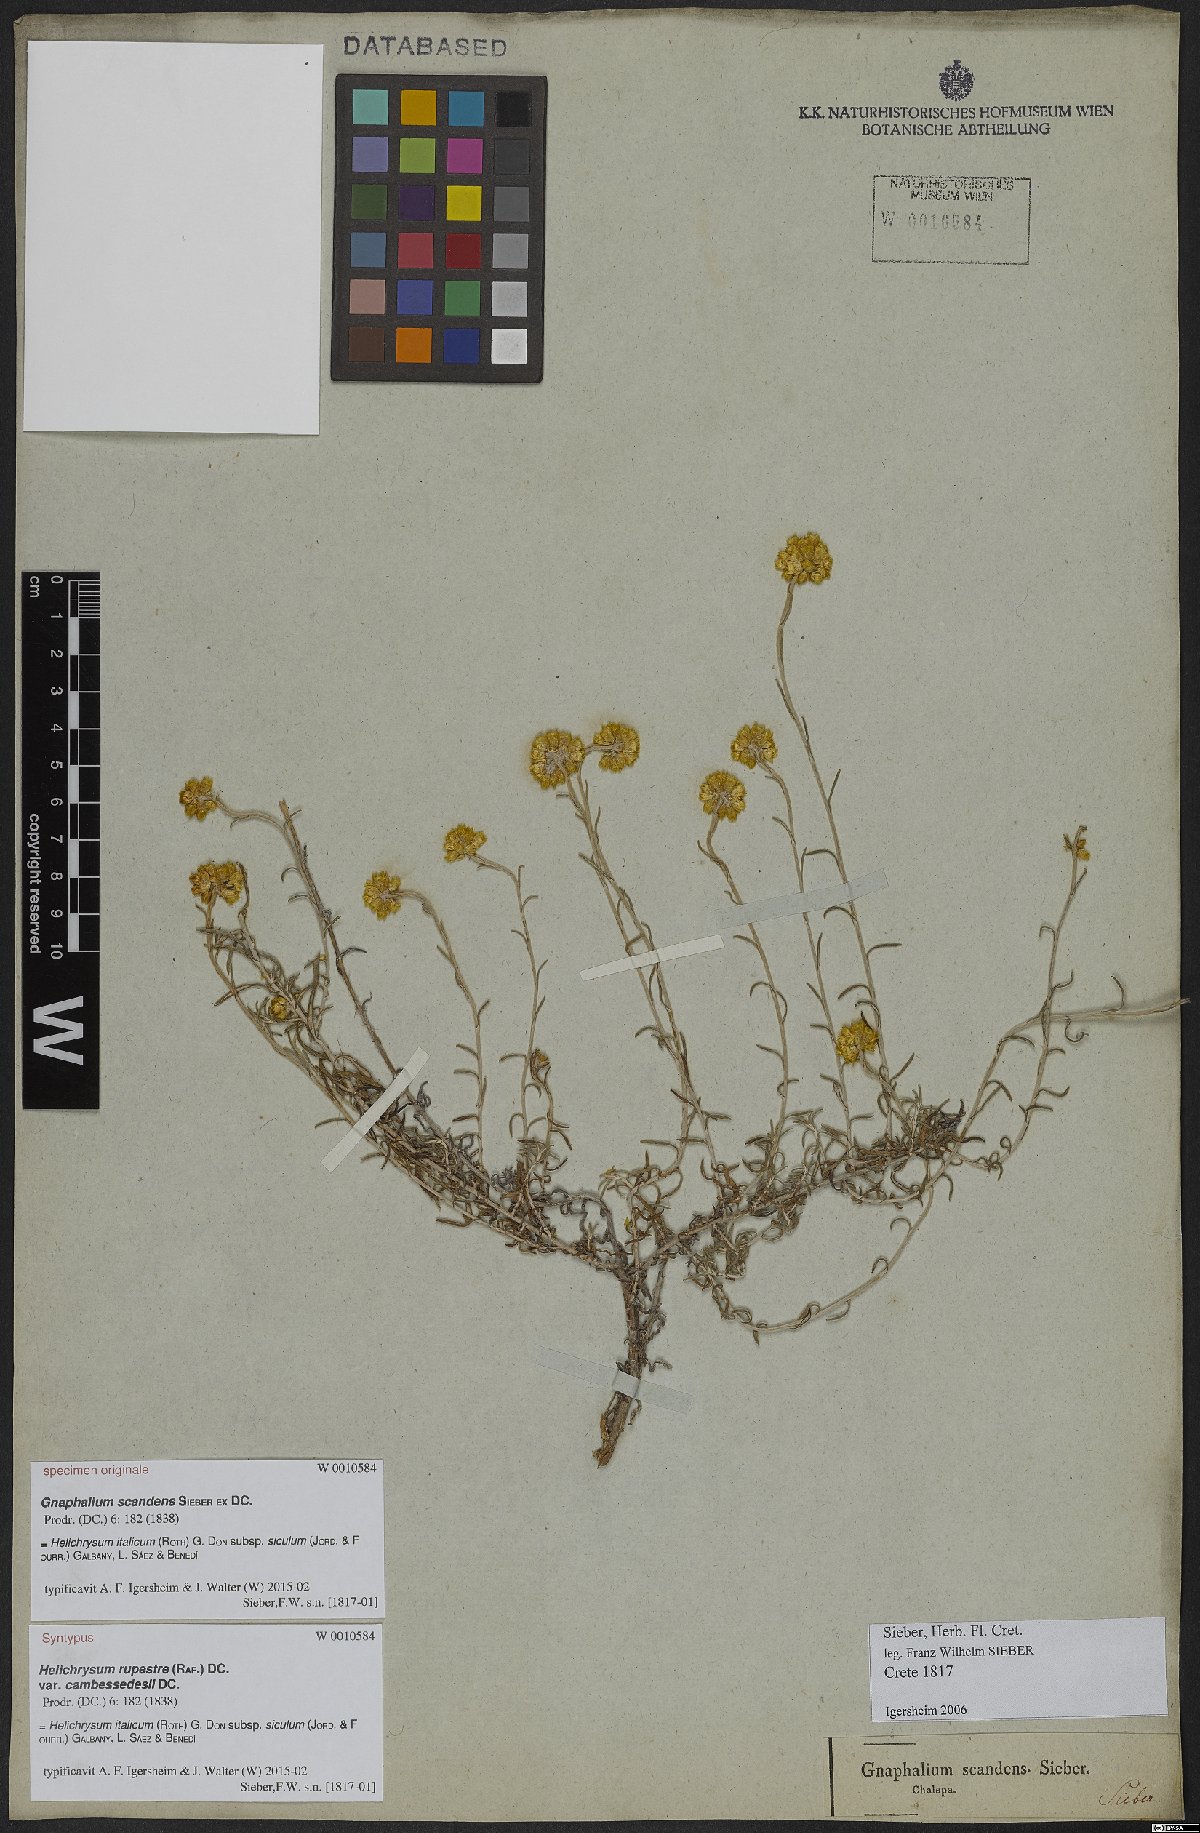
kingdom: Plantae
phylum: Tracheophyta
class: Magnoliopsida
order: Asterales
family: Asteraceae
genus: Helichrysum
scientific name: Helichrysum italicum
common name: Curryplant
